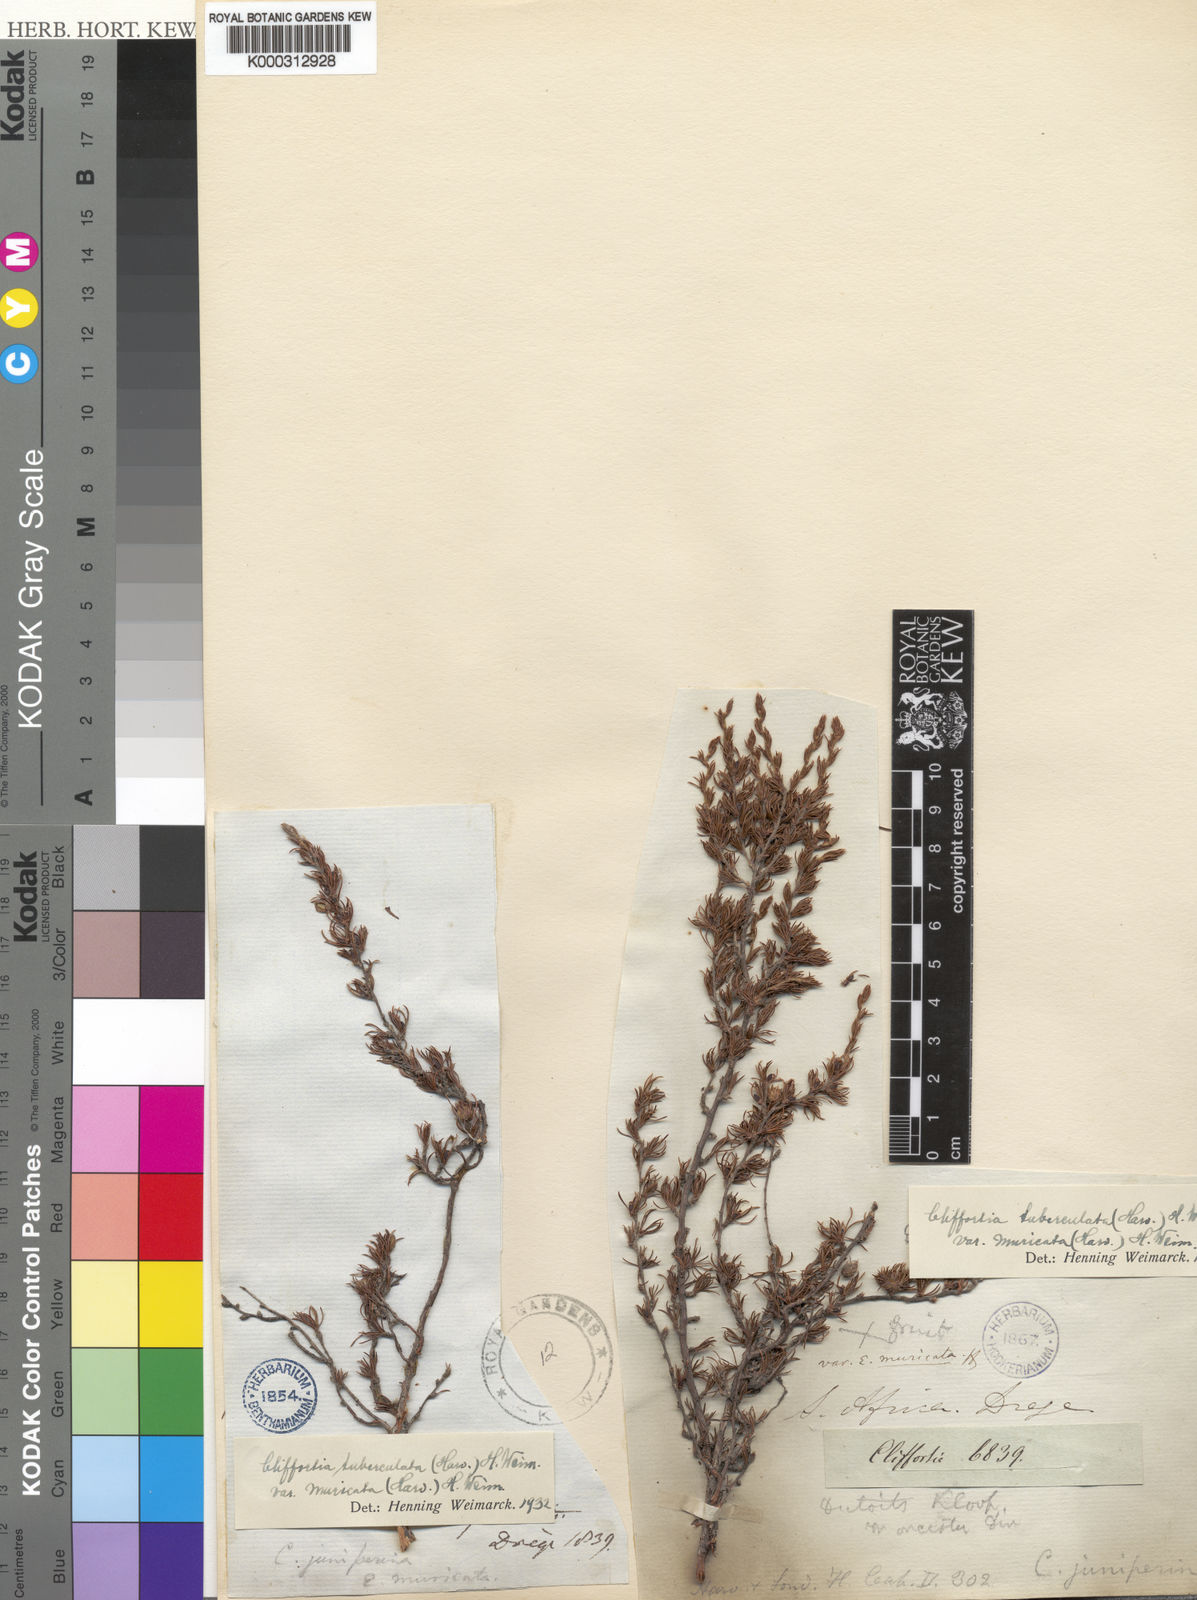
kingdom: Plantae
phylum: Tracheophyta
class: Magnoliopsida
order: Rosales
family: Rosaceae
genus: Cliffortia
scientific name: Cliffortia tuberculata
